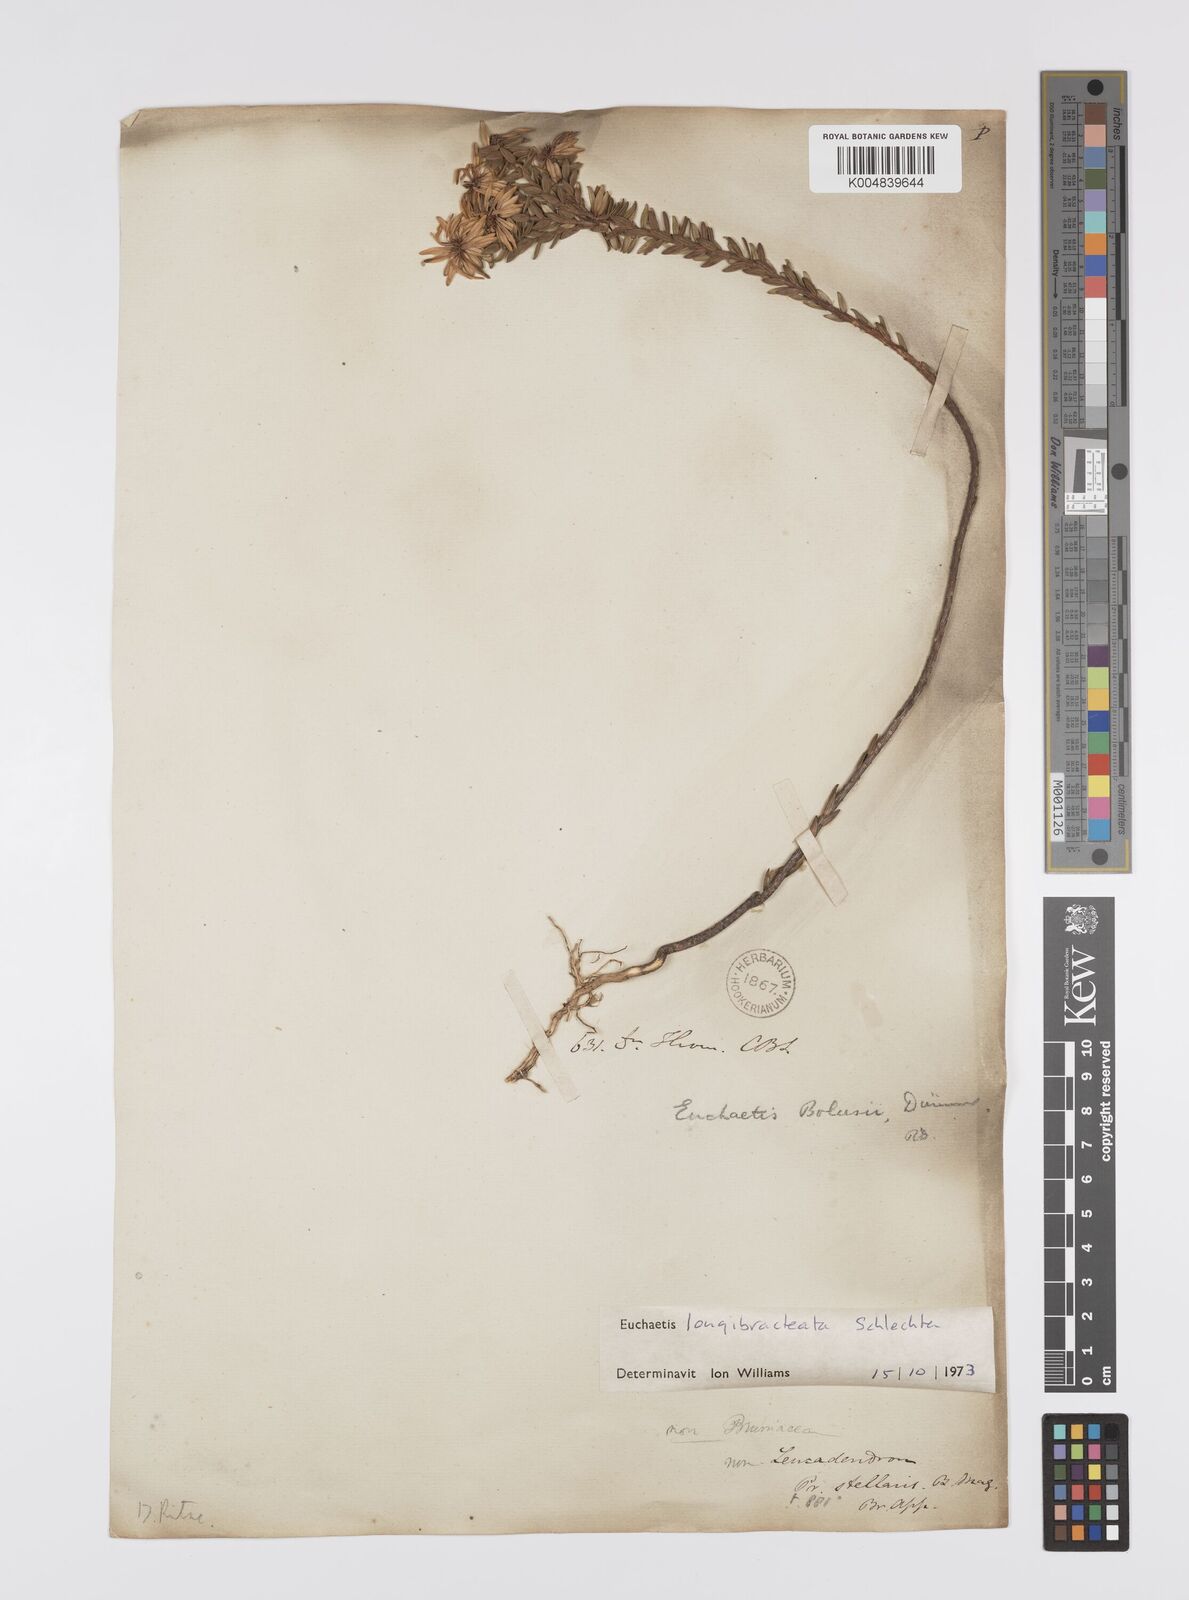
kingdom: Plantae
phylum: Tracheophyta
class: Magnoliopsida
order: Sapindales
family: Rutaceae
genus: Euchaetis
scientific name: Euchaetis longibracteata
